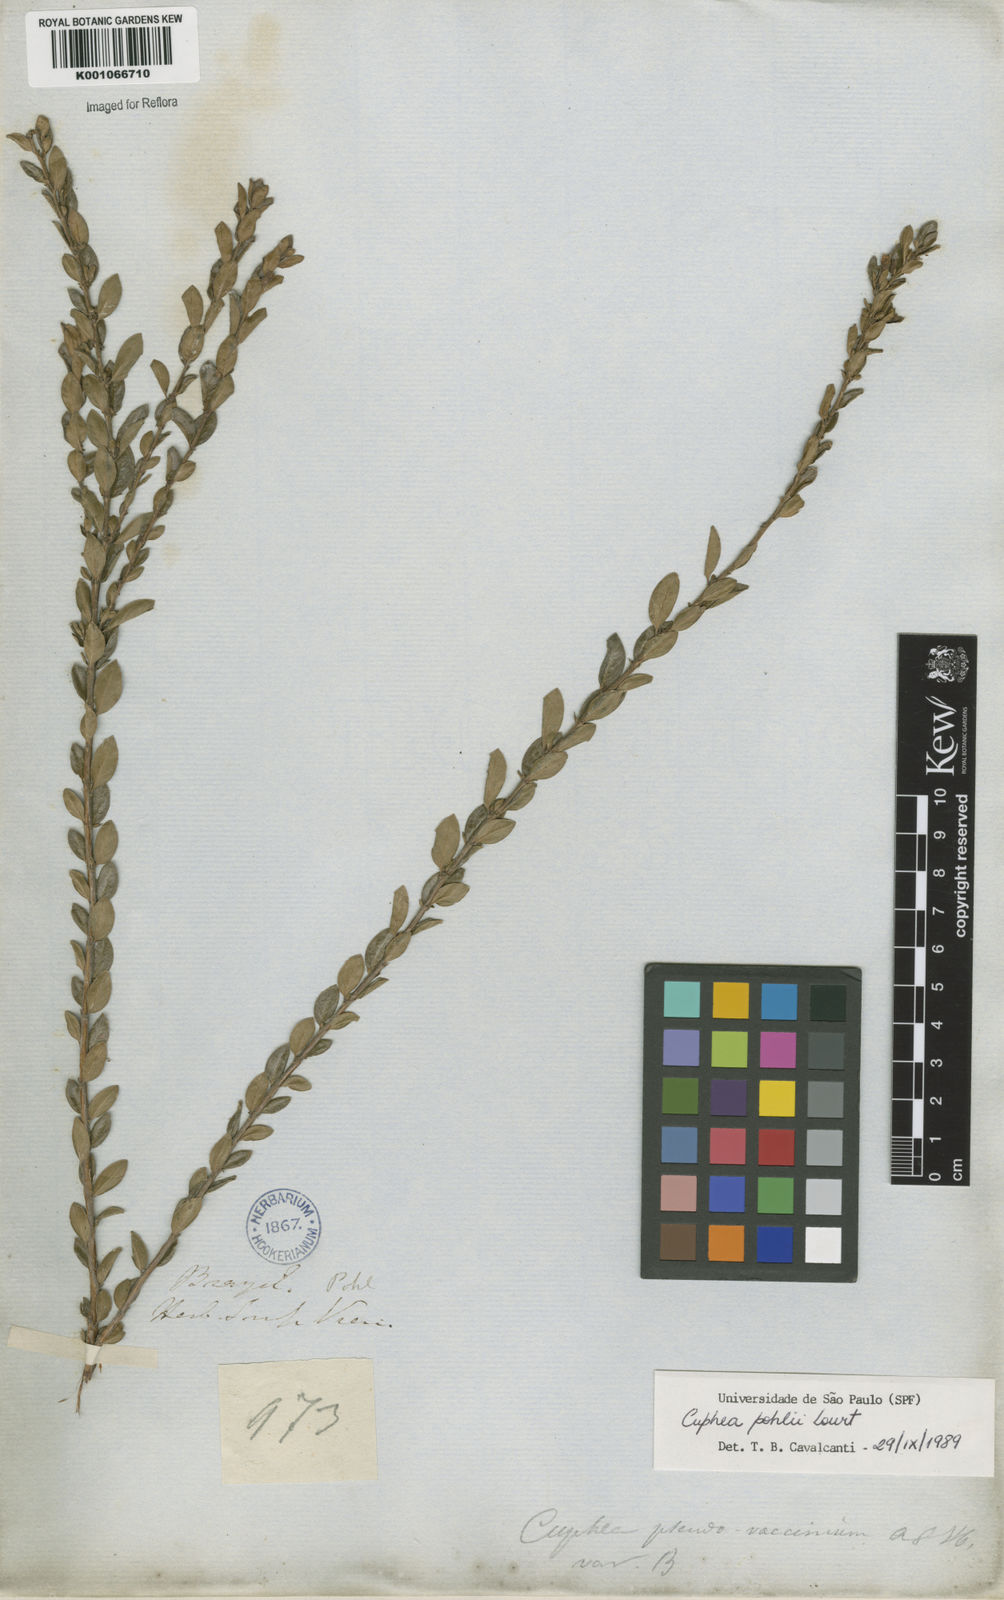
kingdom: Plantae
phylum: Tracheophyta
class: Magnoliopsida
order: Myrtales
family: Lythraceae
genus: Cuphea
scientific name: Cuphea pohlii
